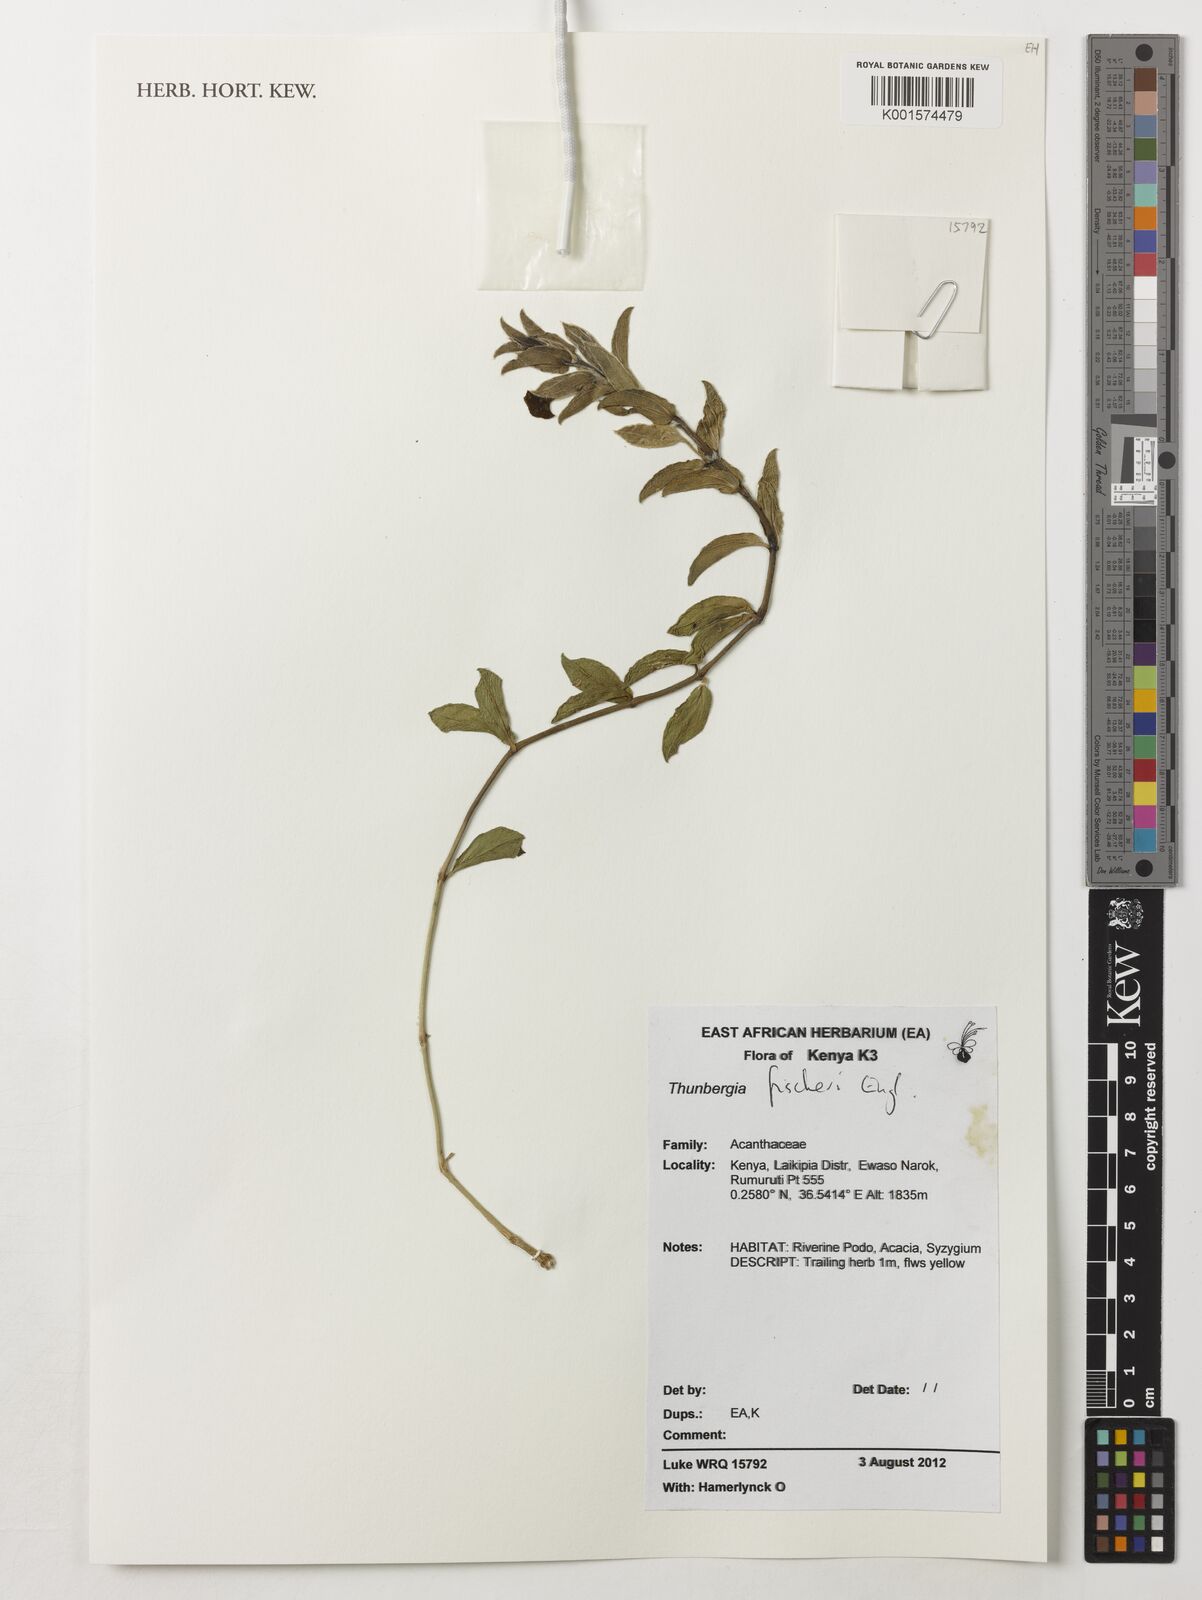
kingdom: Plantae
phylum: Tracheophyta
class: Magnoliopsida
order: Lamiales
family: Acanthaceae
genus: Thunbergia
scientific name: Thunbergia fischeri
